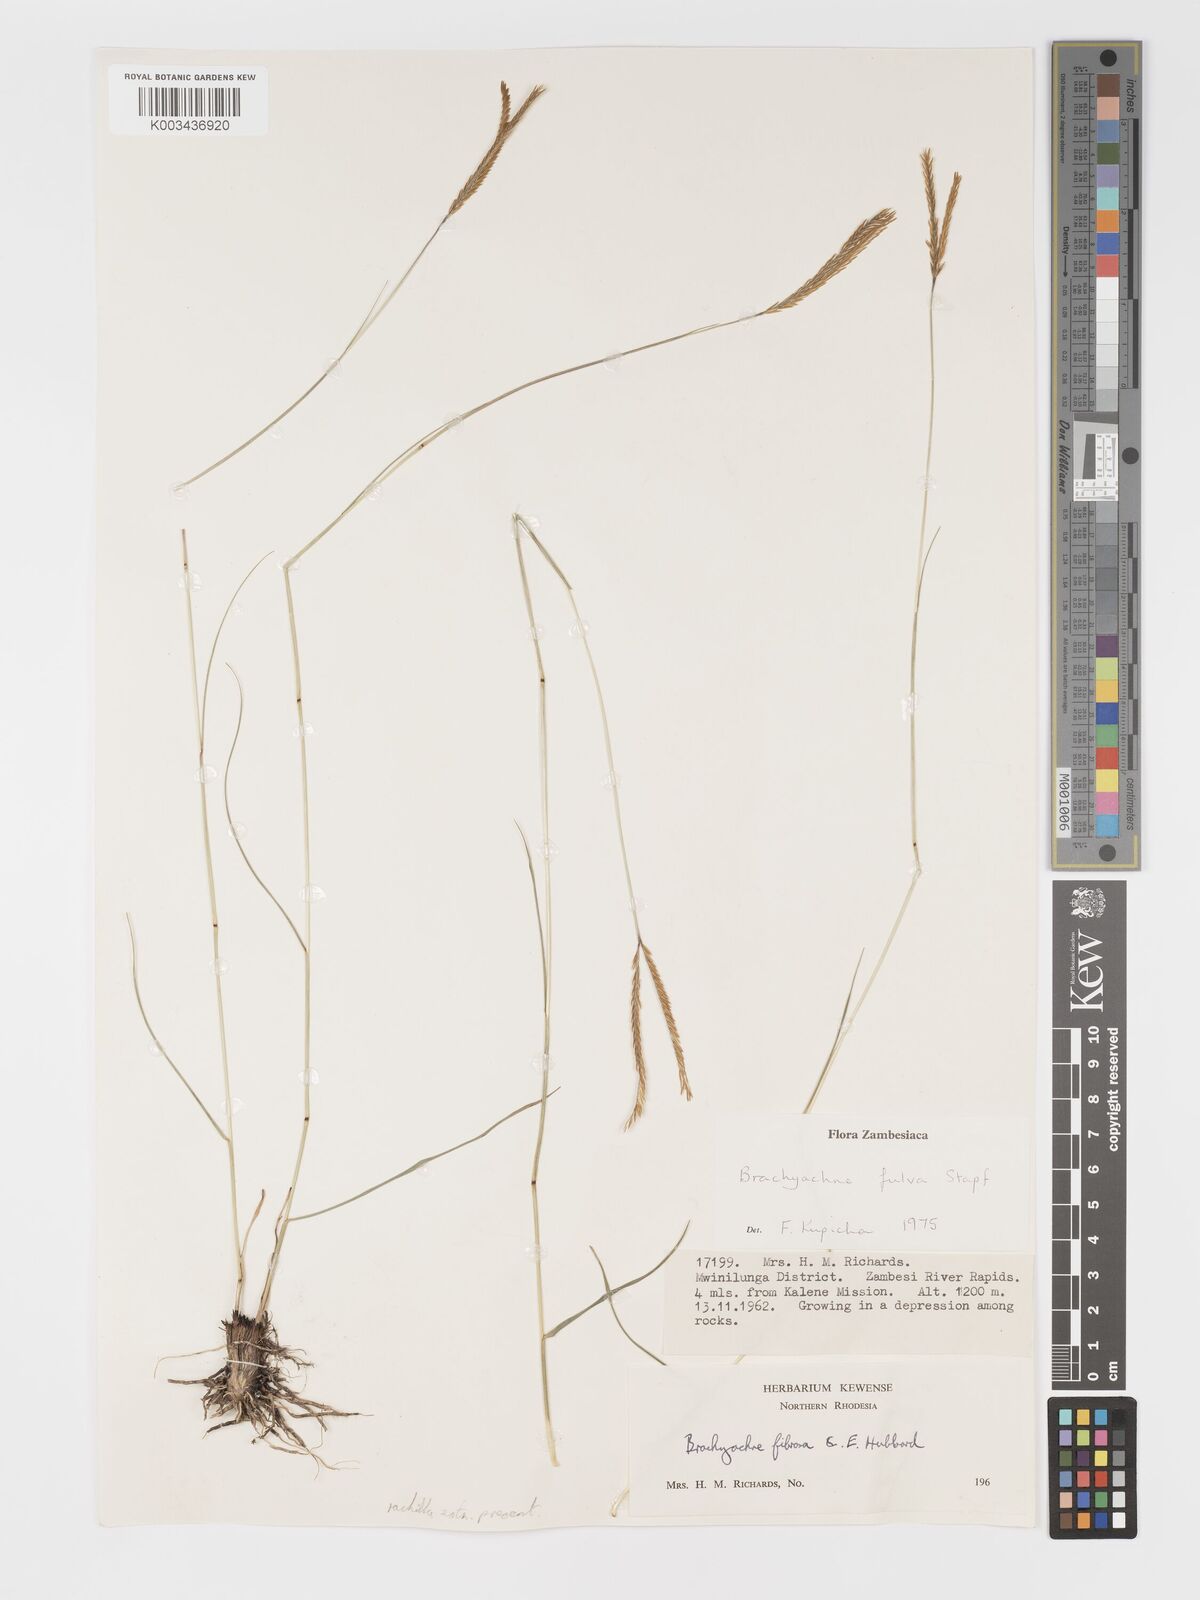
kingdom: Plantae
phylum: Tracheophyta
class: Liliopsida
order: Poales
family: Poaceae
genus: Micrachne
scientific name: Micrachne fulva
